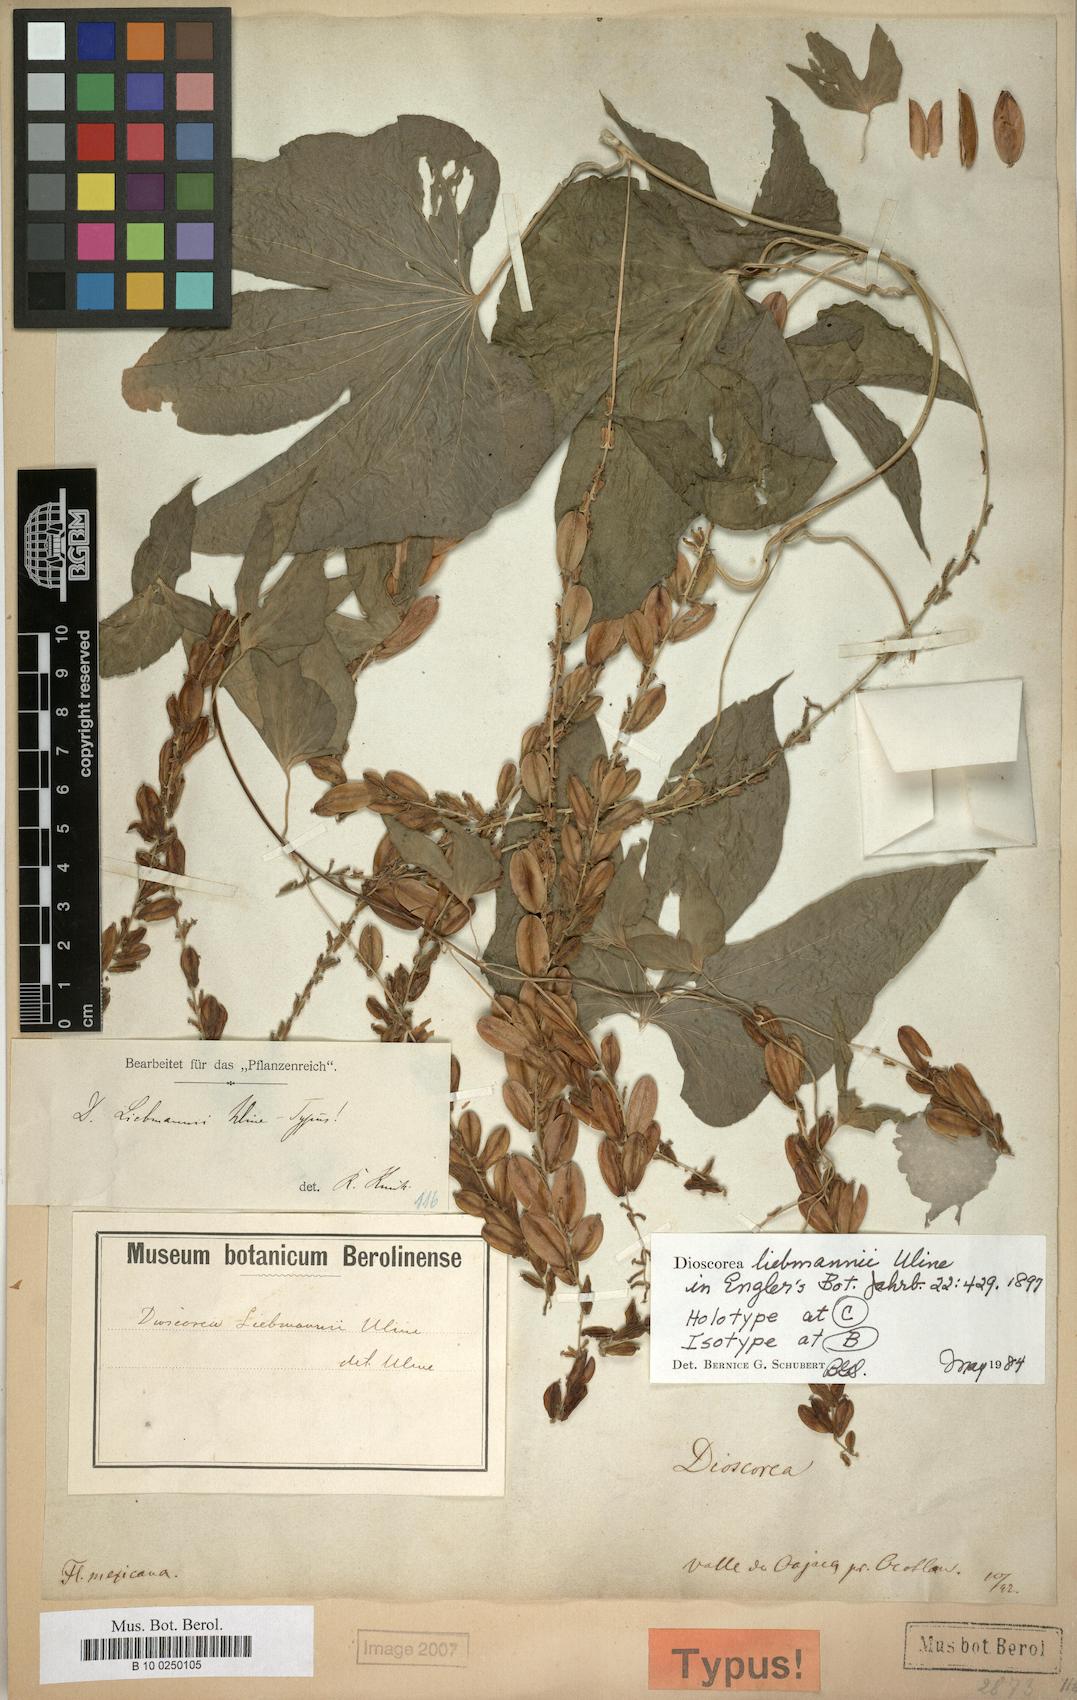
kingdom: Plantae
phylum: Tracheophyta
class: Liliopsida
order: Dioscoreales
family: Dioscoreaceae
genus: Dioscorea
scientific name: Dioscorea liebmannii
